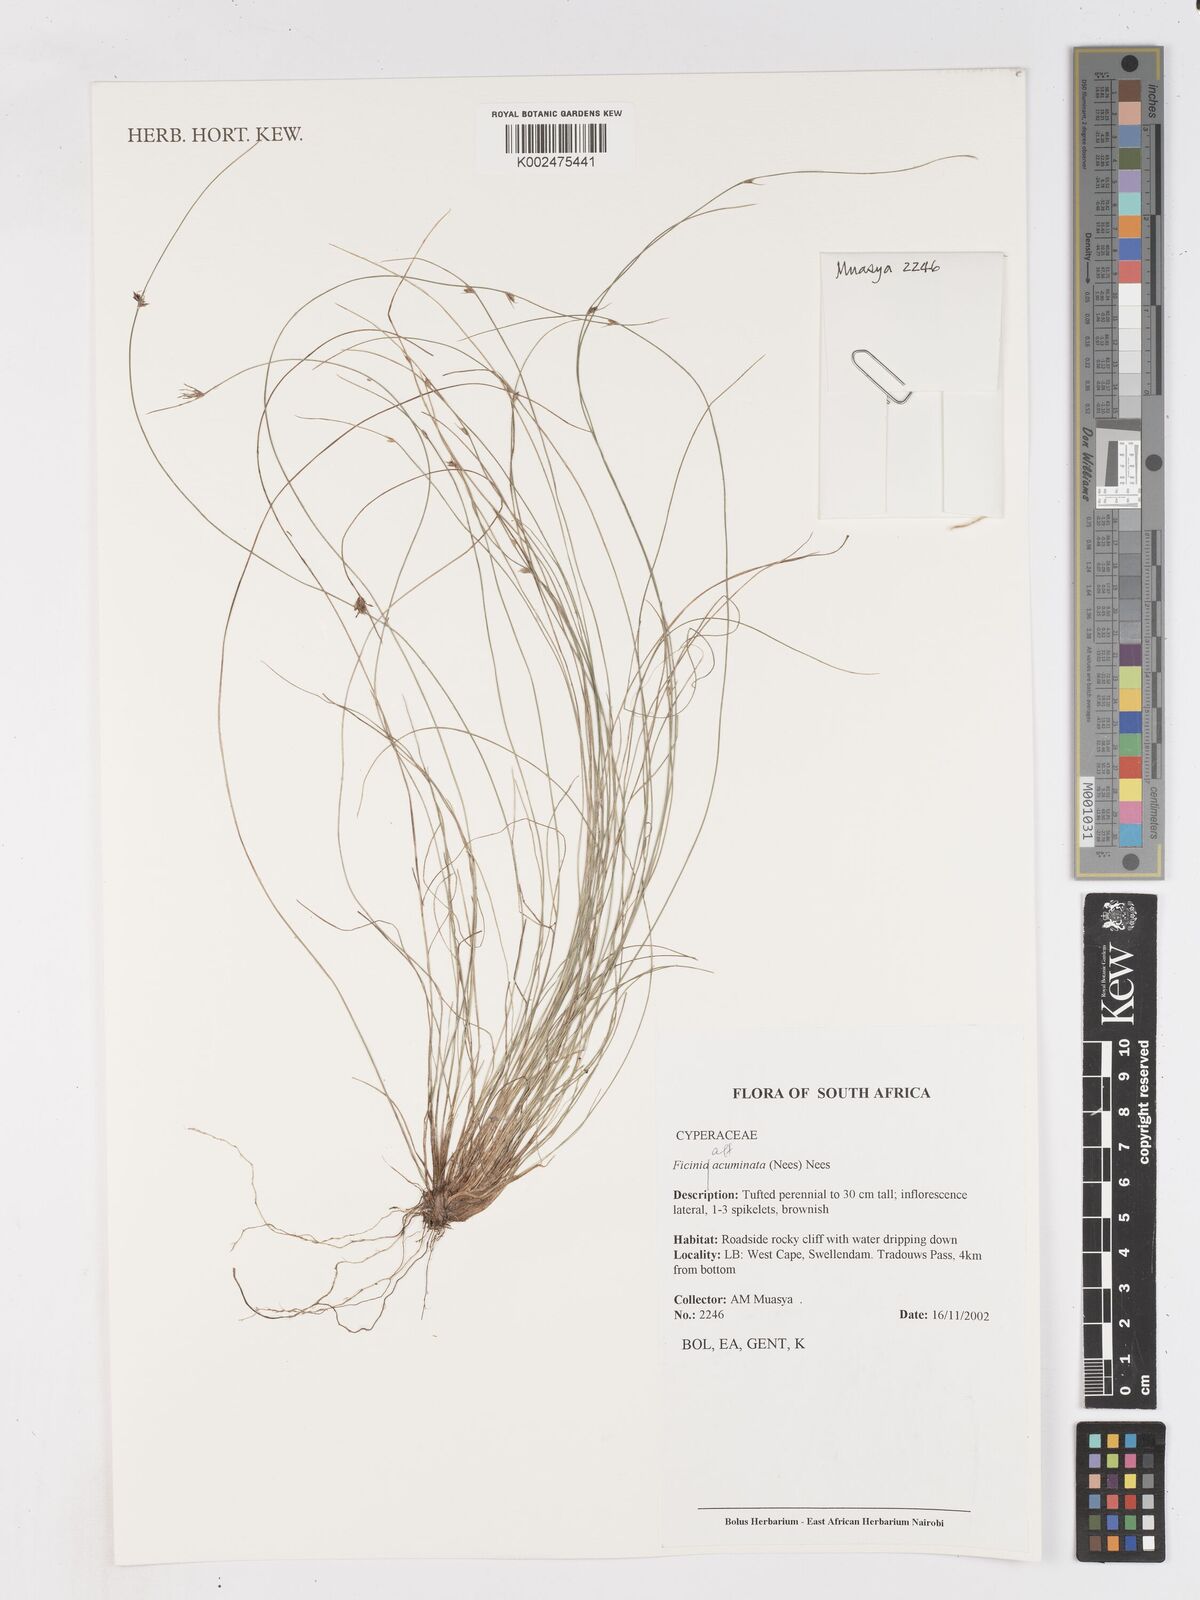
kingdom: Plantae
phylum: Tracheophyta
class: Liliopsida
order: Poales
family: Cyperaceae
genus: Ficinia
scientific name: Ficinia acuminata
